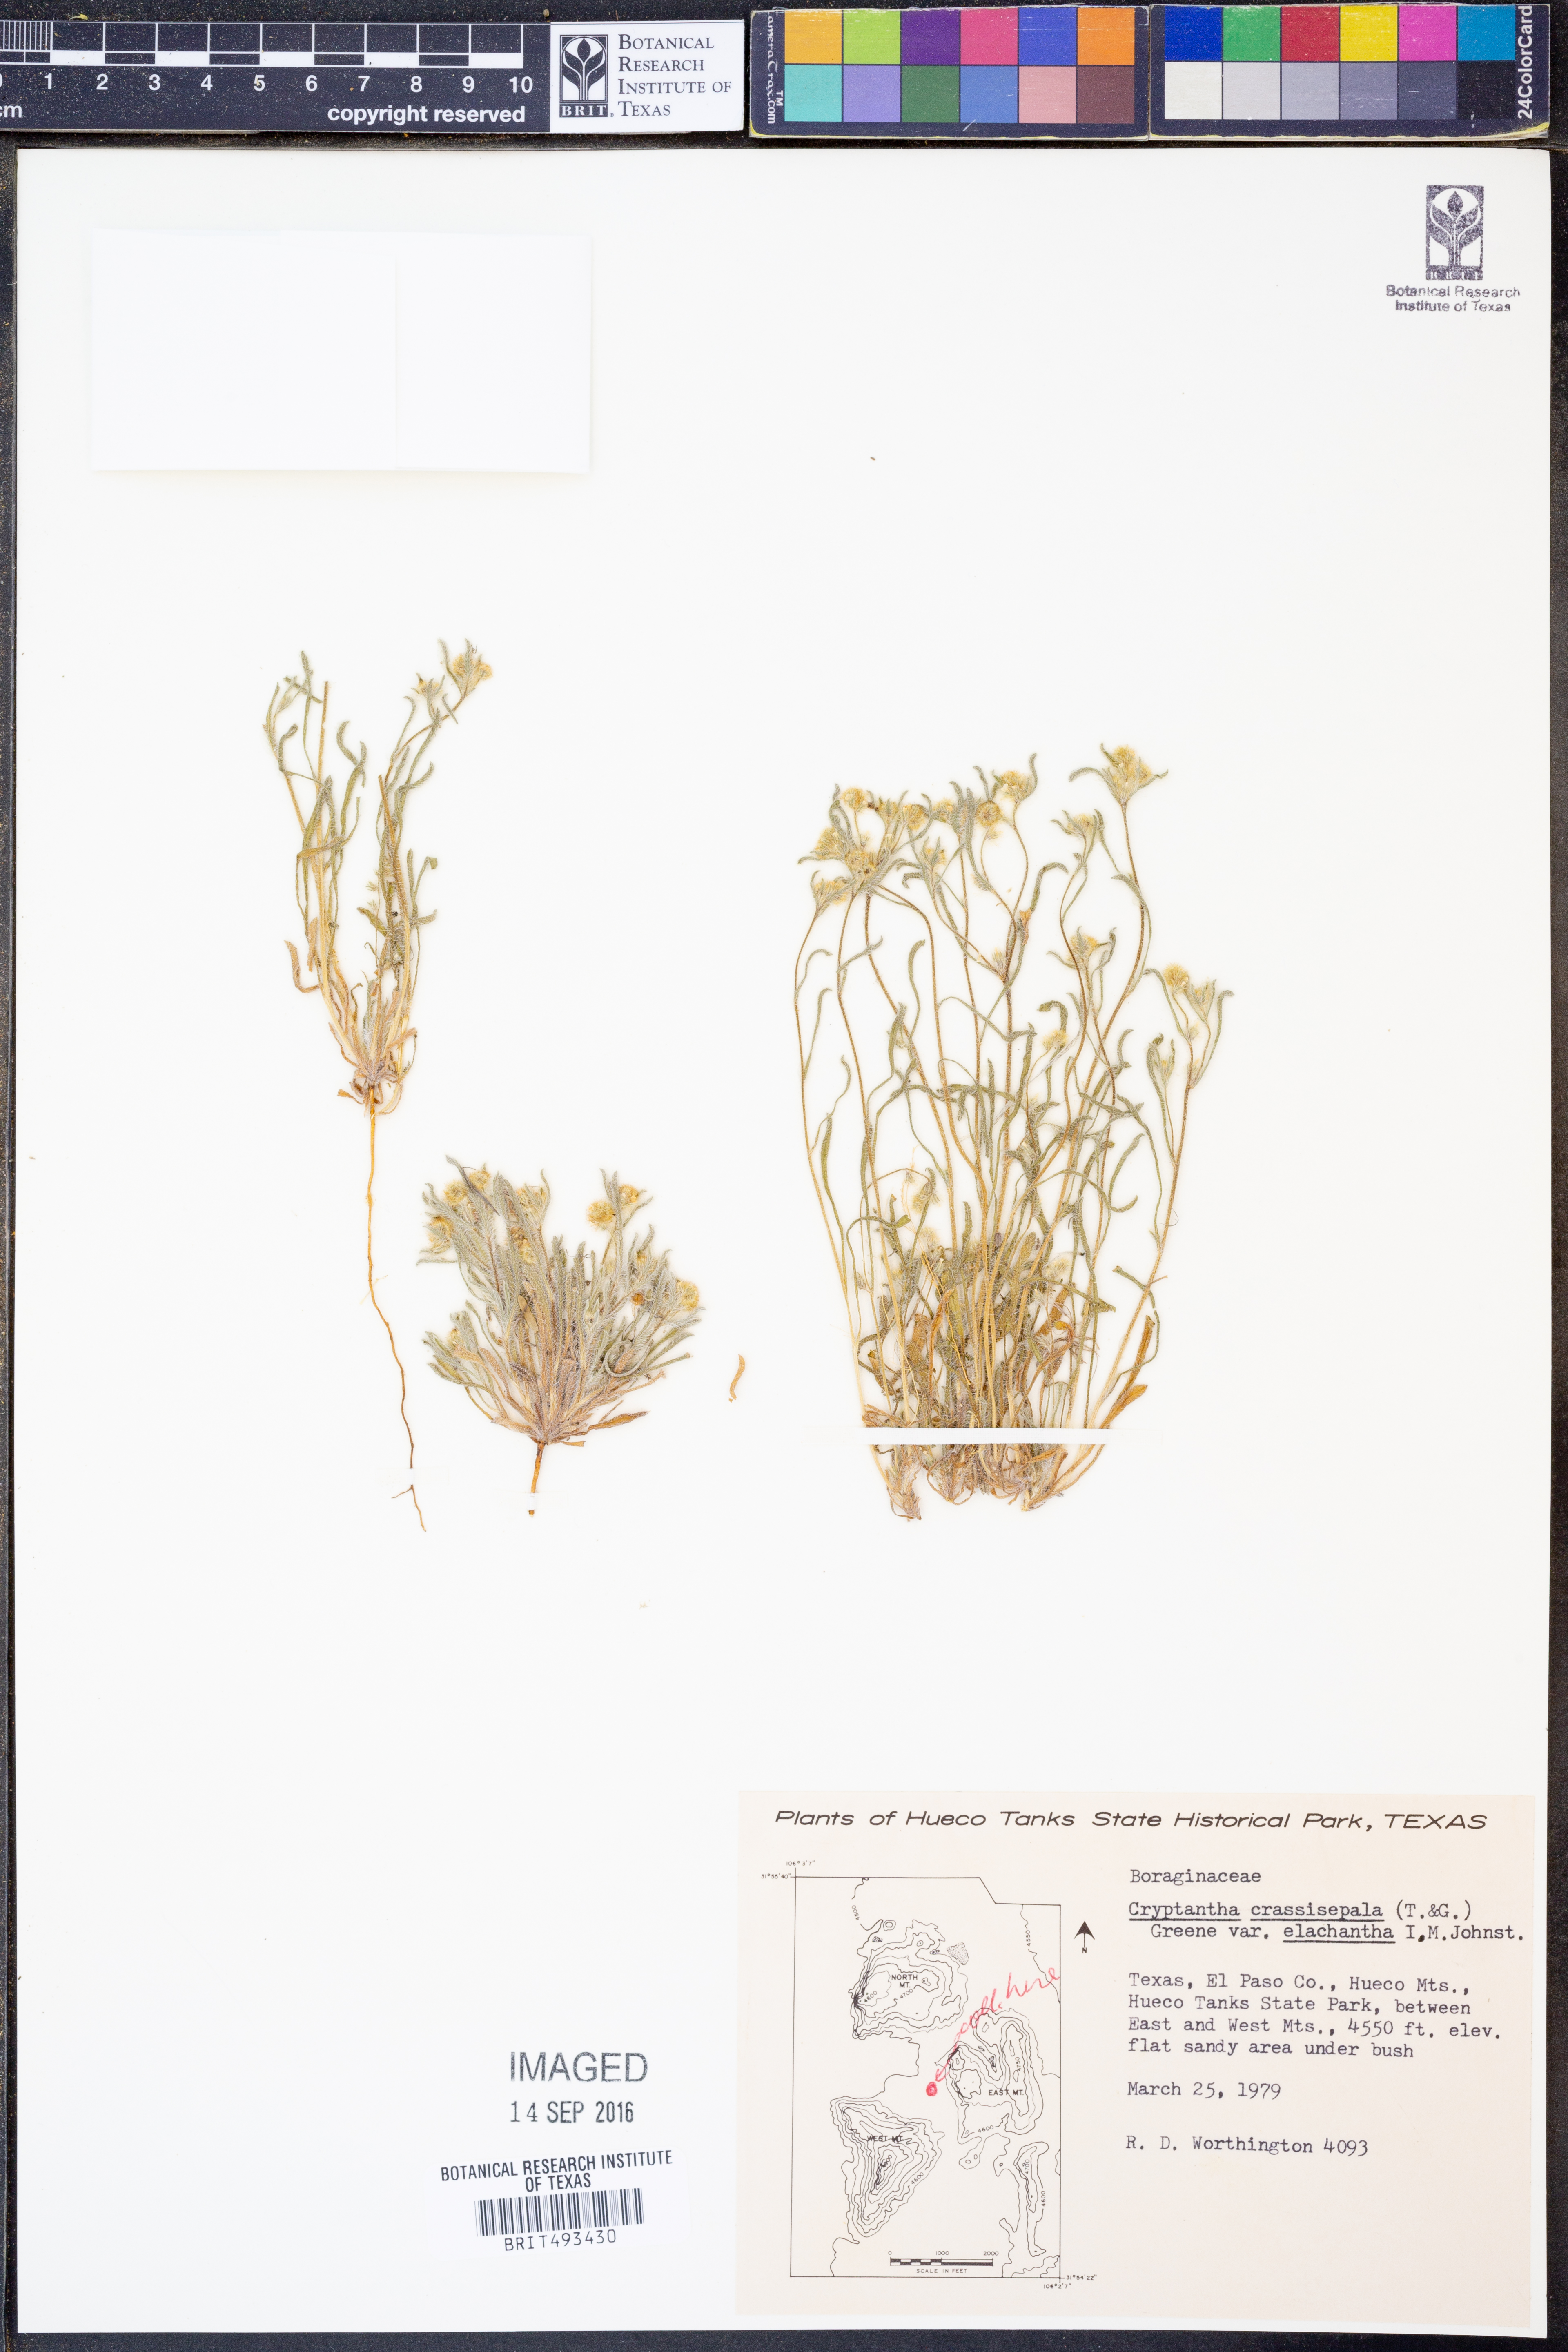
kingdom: Plantae
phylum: Tracheophyta
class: Magnoliopsida
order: Boraginales
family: Boraginaceae
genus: Cryptantha
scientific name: Cryptantha crassisepala
